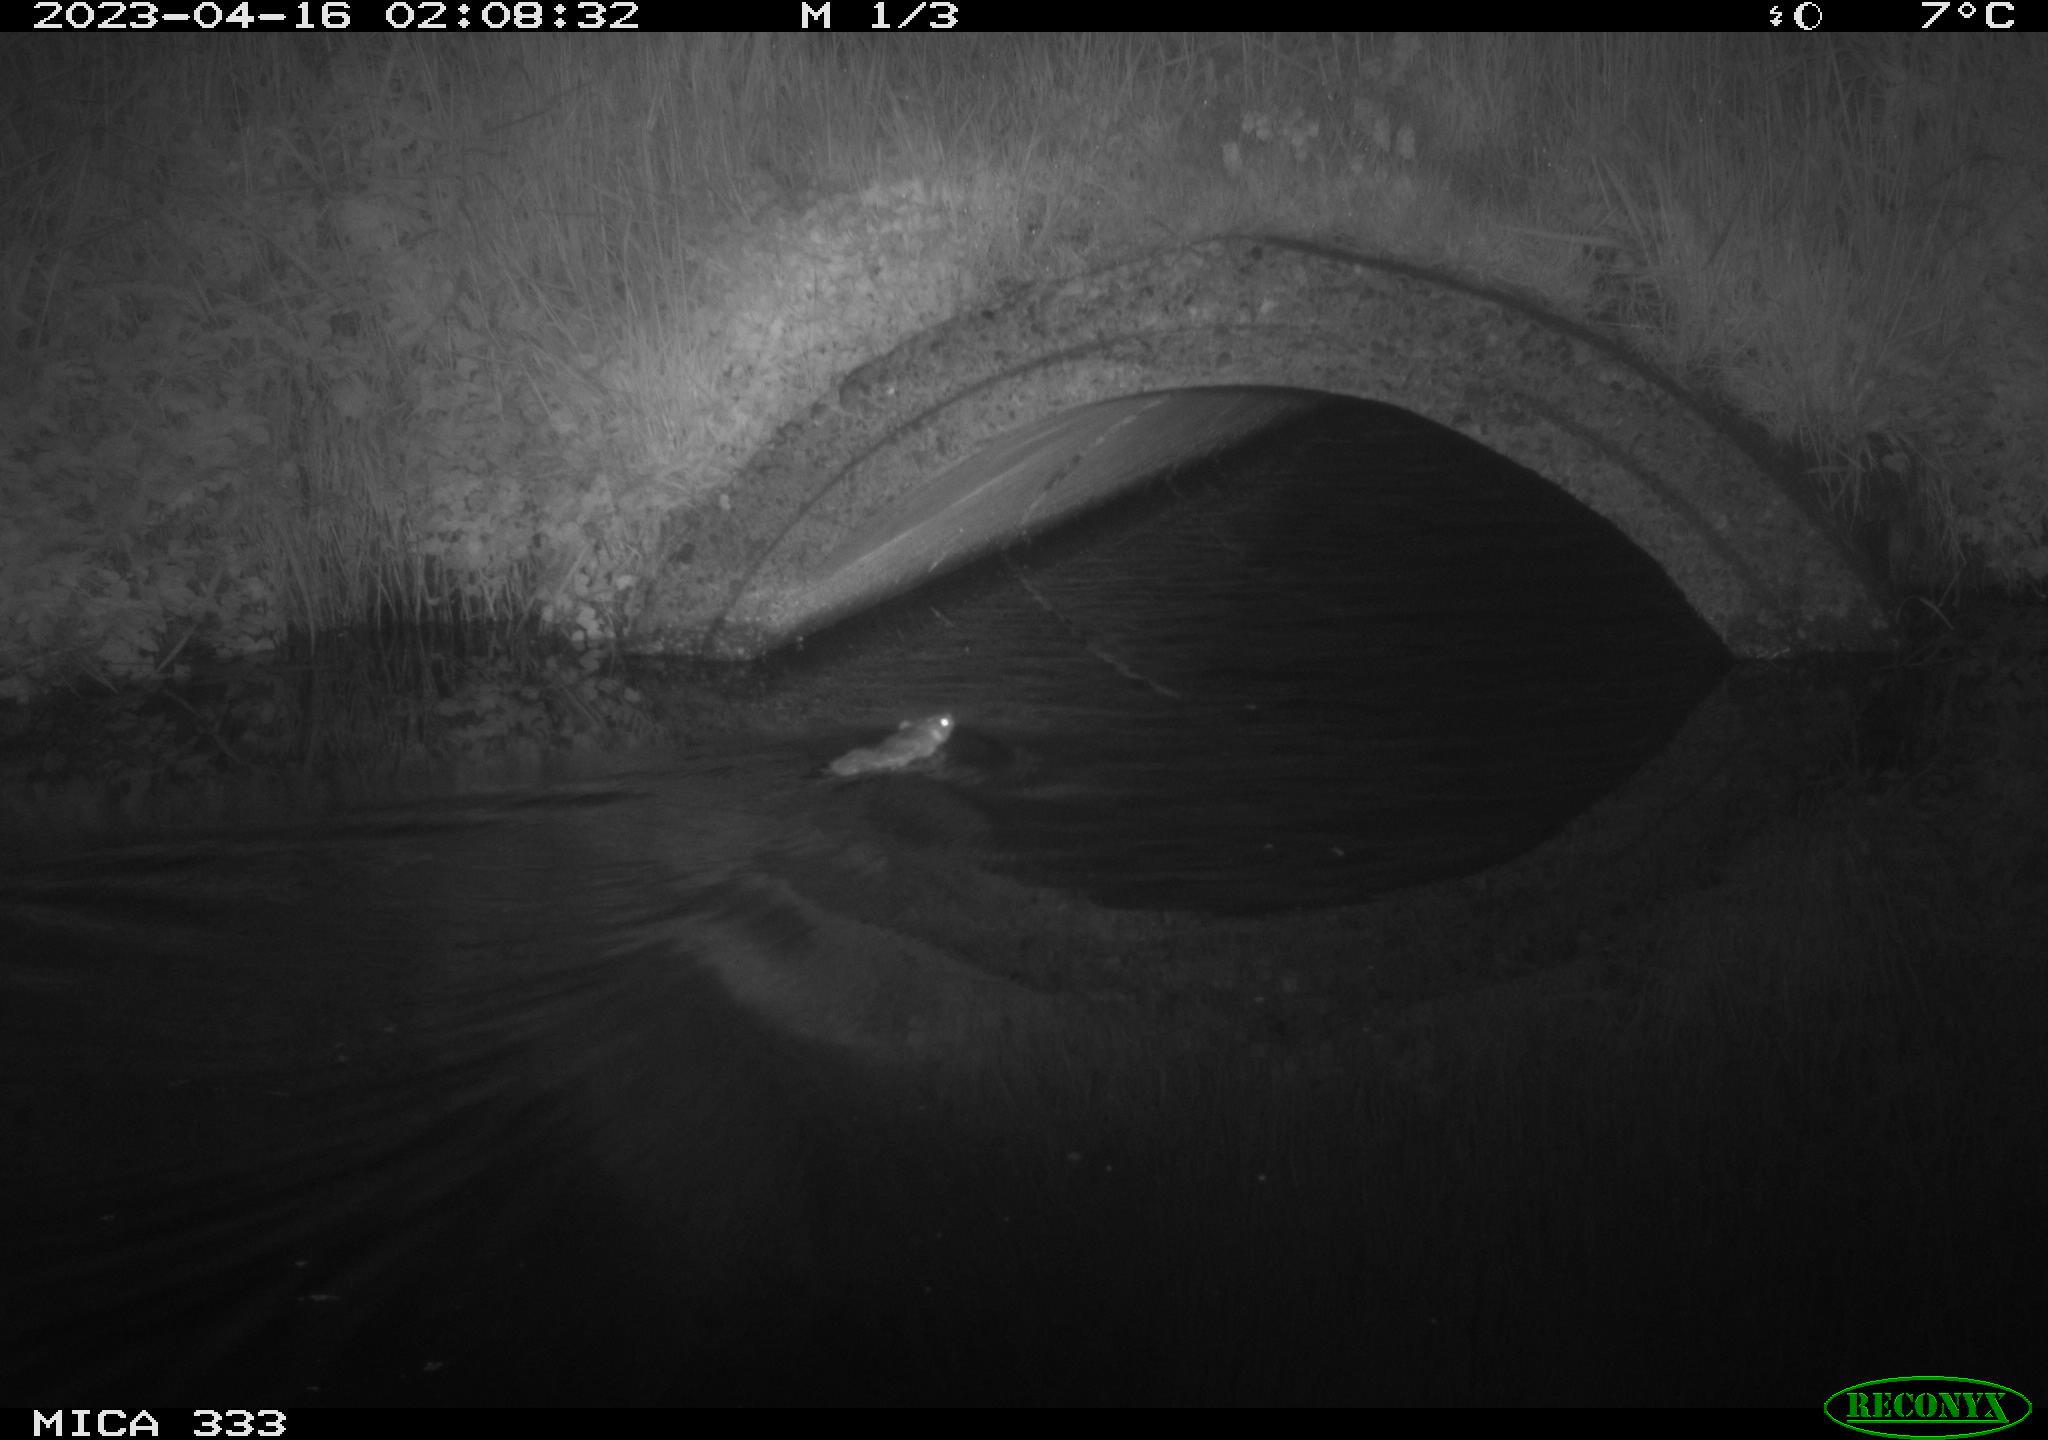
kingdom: Animalia
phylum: Chordata
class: Mammalia
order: Rodentia
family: Muridae
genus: Rattus
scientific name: Rattus norvegicus
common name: Brown rat
